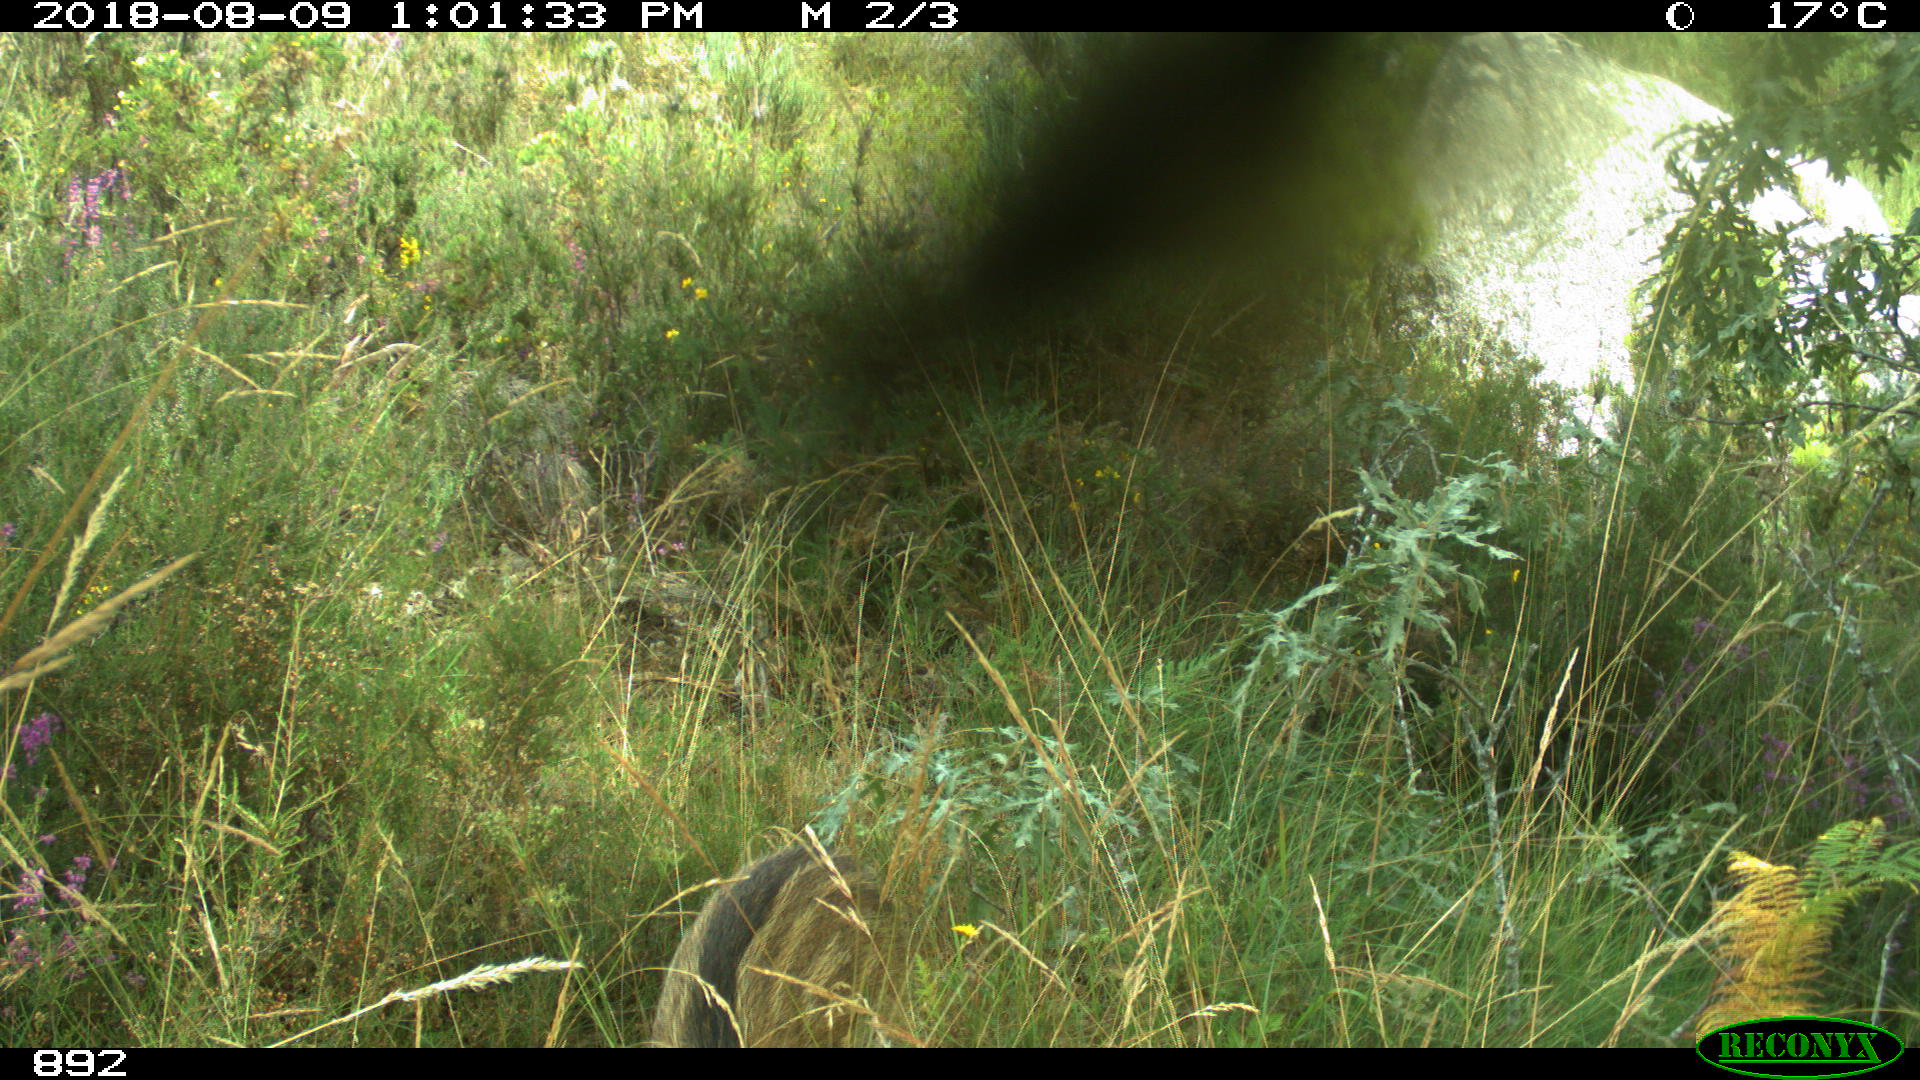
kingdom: Animalia
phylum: Chordata
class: Mammalia
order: Artiodactyla
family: Suidae
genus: Sus
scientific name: Sus scrofa
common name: Wild boar
